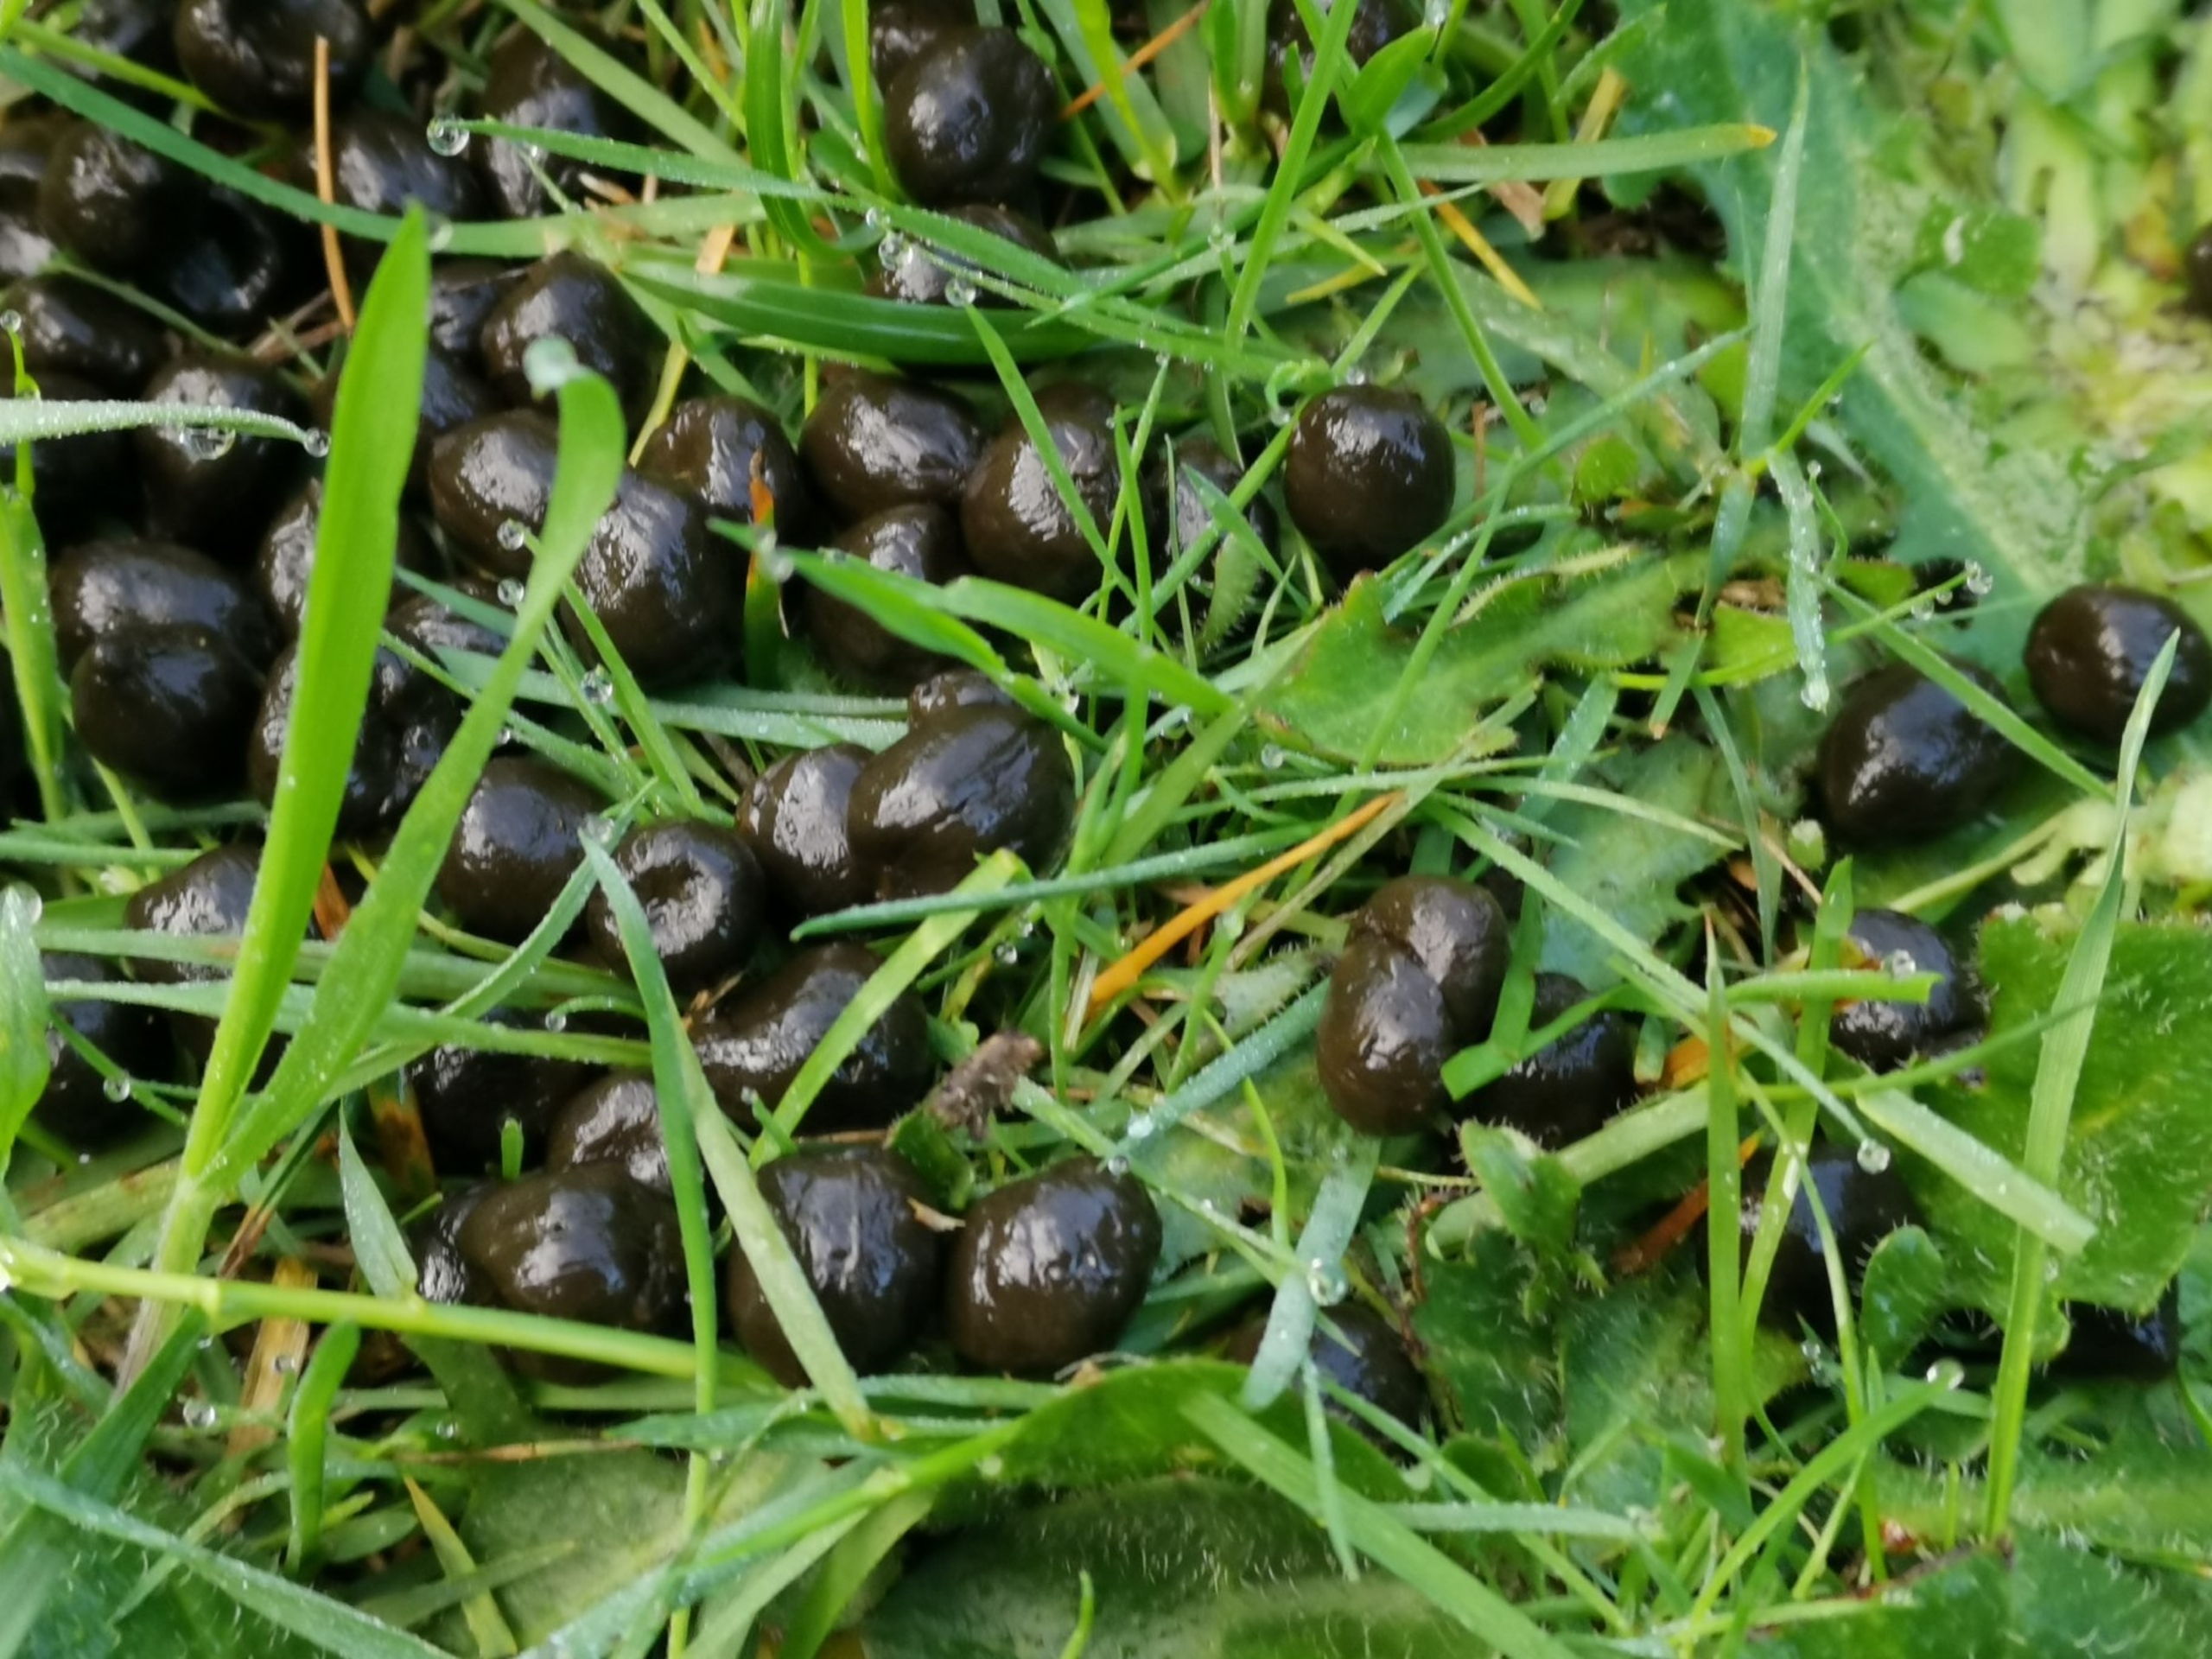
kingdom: Animalia
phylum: Chordata
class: Mammalia
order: Artiodactyla
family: Cervidae
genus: Capreolus
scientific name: Capreolus capreolus
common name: Rådyr
